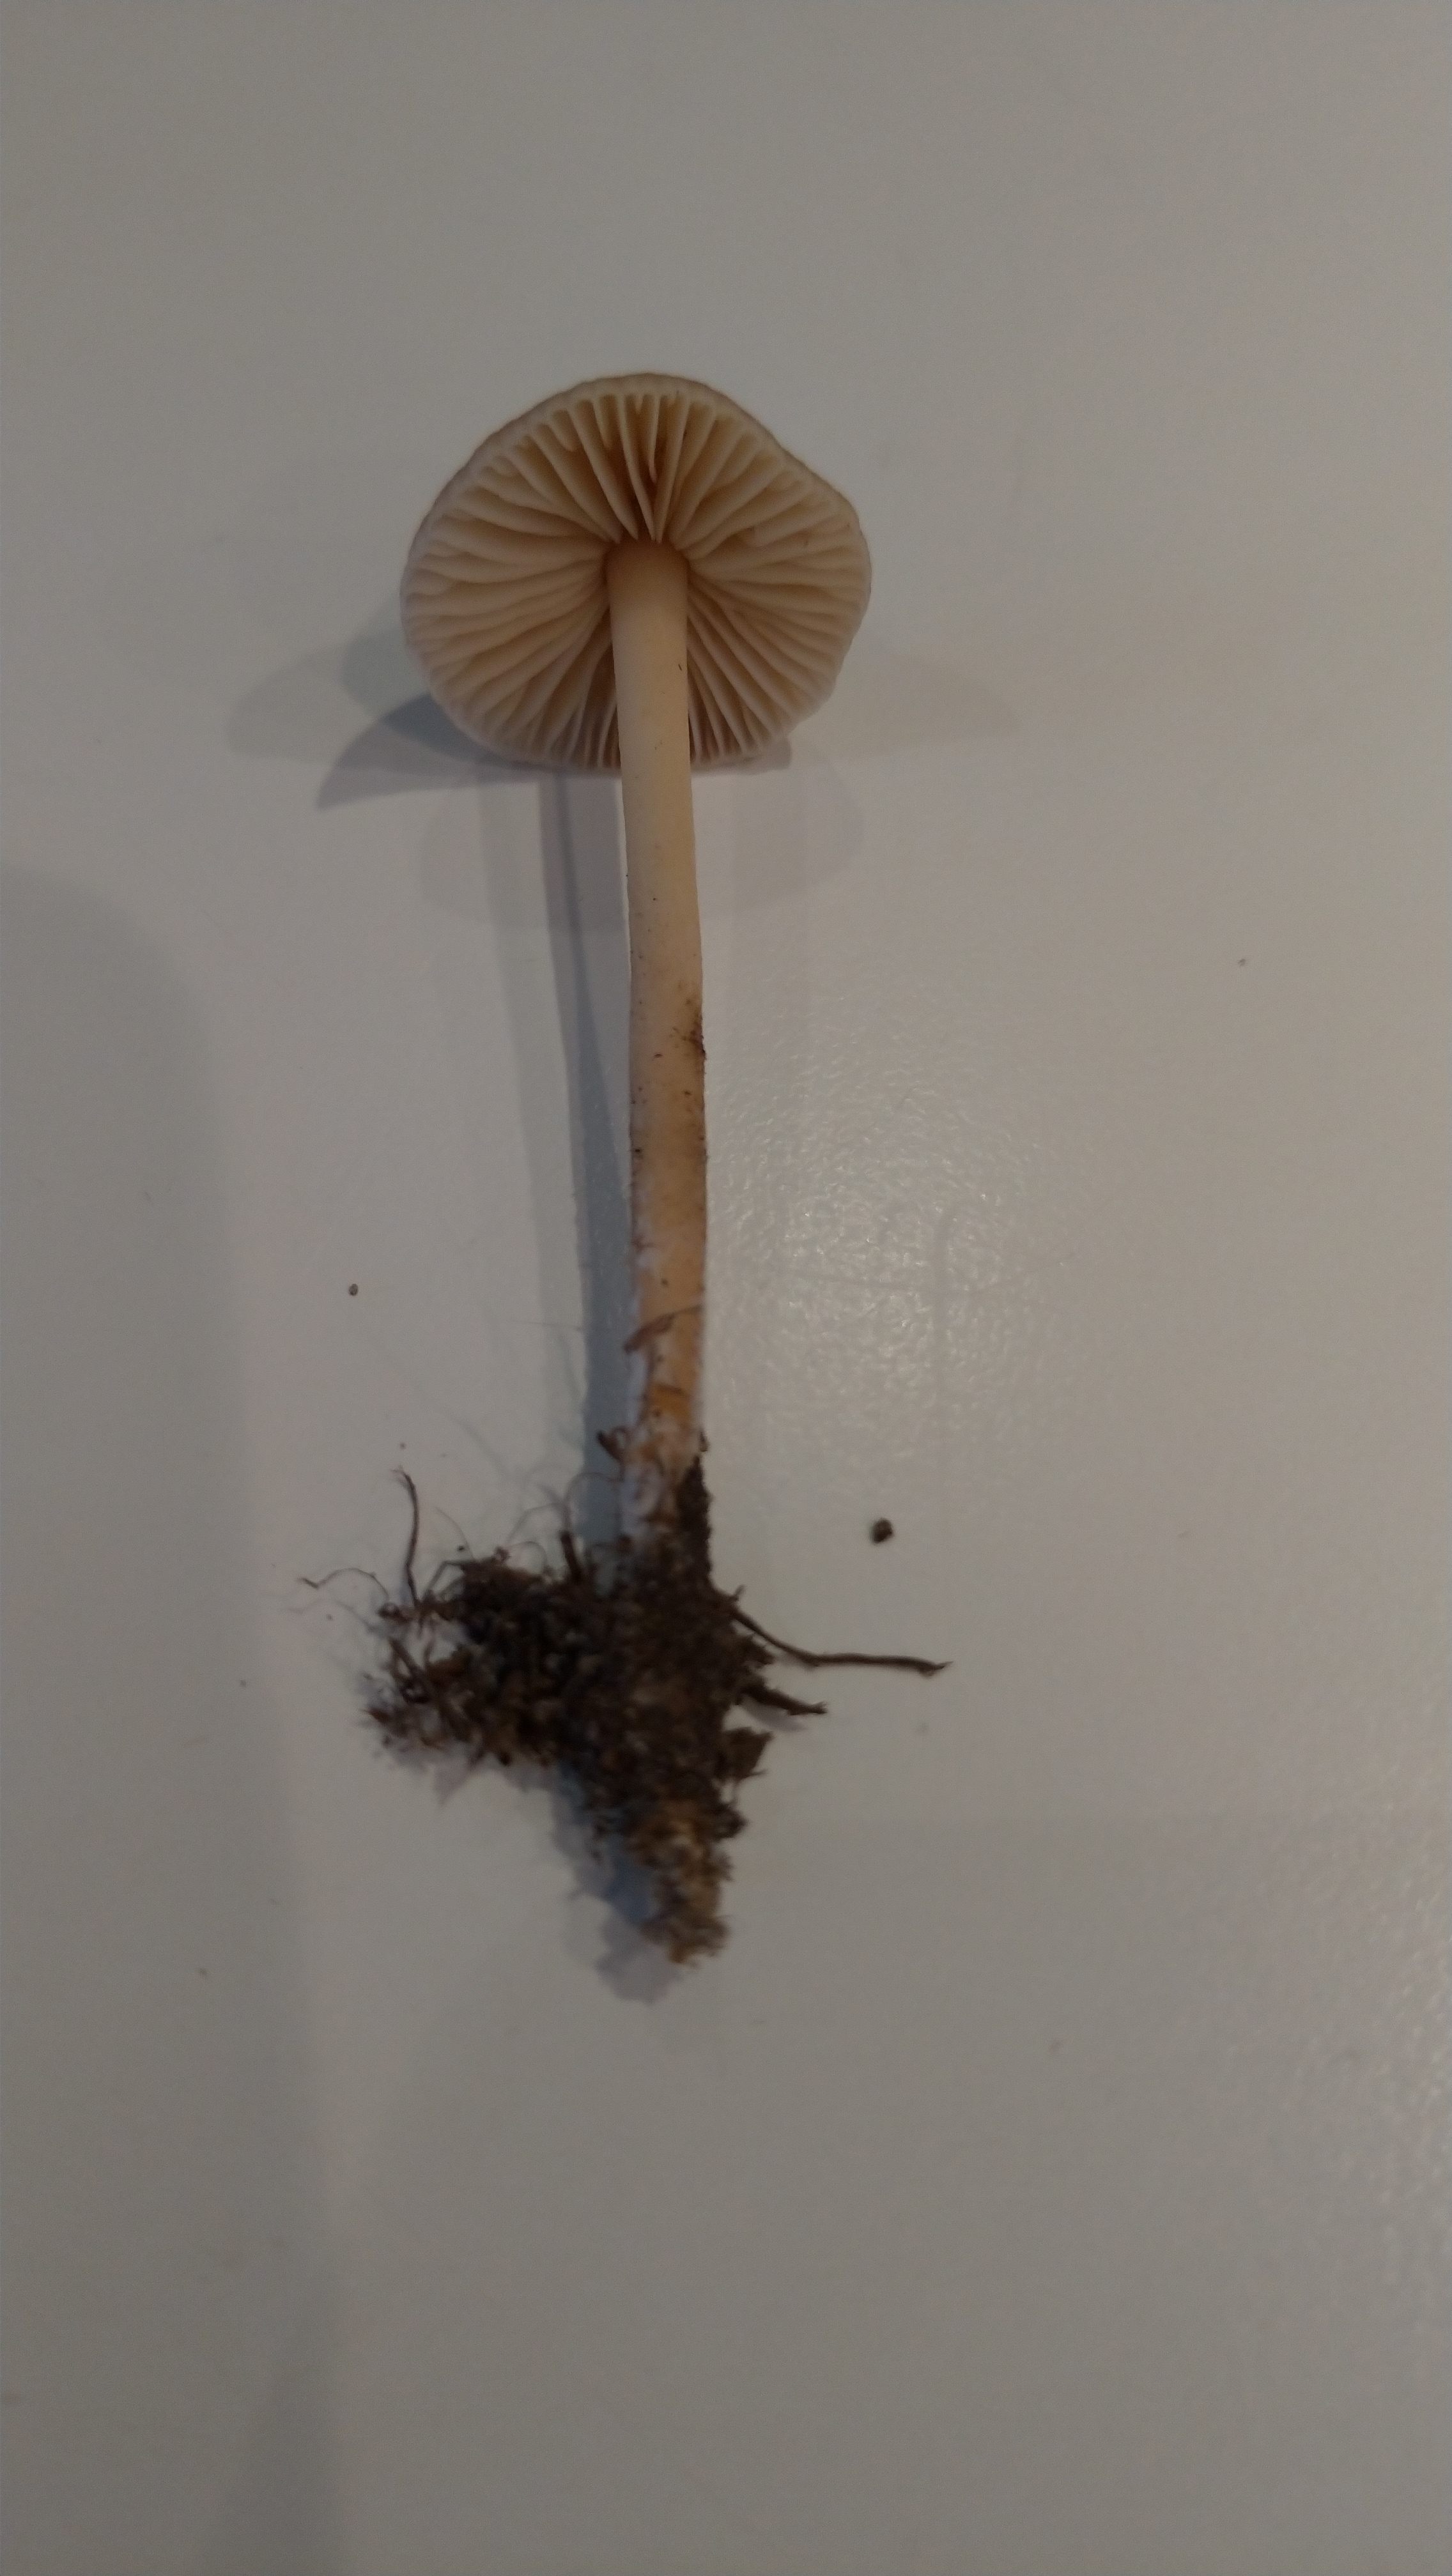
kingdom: Fungi
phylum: Basidiomycota
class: Agaricomycetes
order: Agaricales
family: Marasmiaceae
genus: Marasmius
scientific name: Marasmius oreades
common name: elledans-bruskhat
